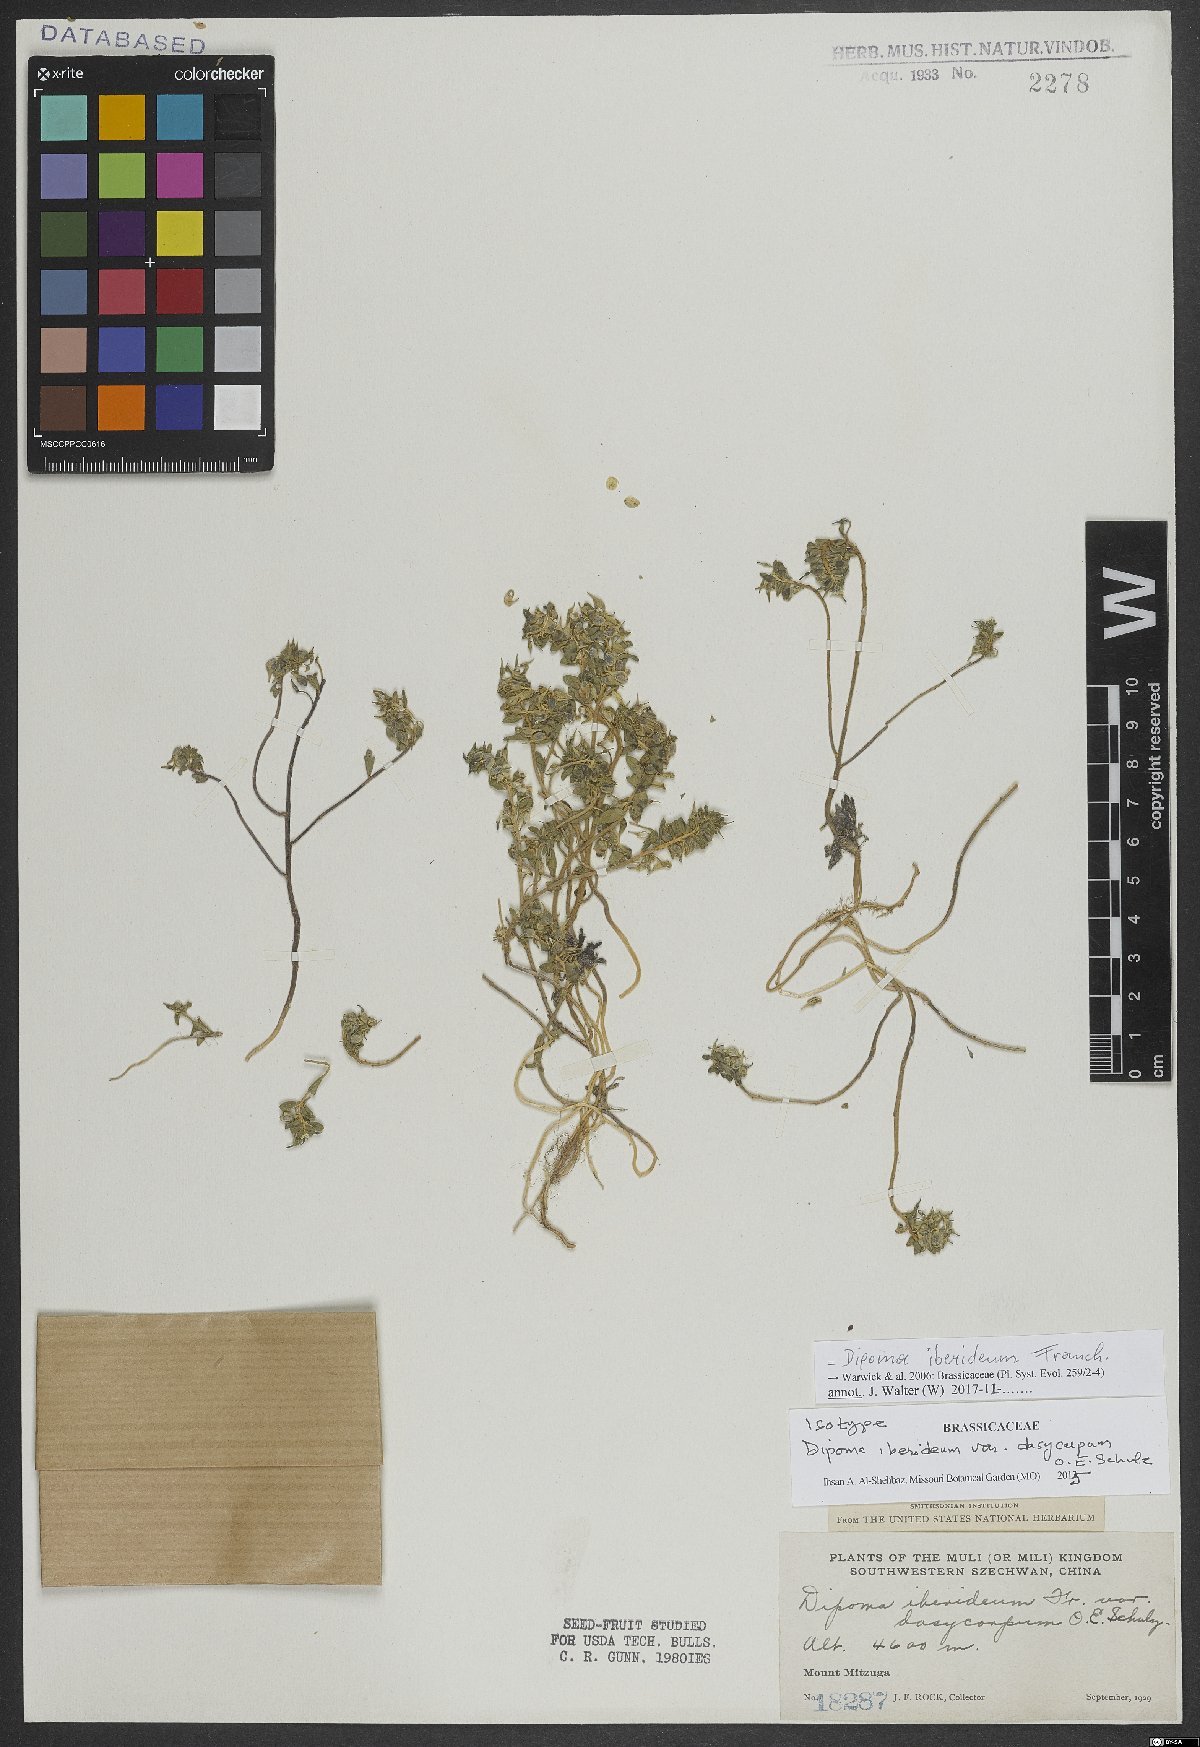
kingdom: Plantae
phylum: Tracheophyta
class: Magnoliopsida
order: Brassicales
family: Brassicaceae
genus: Dipoma
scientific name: Dipoma iberideum
